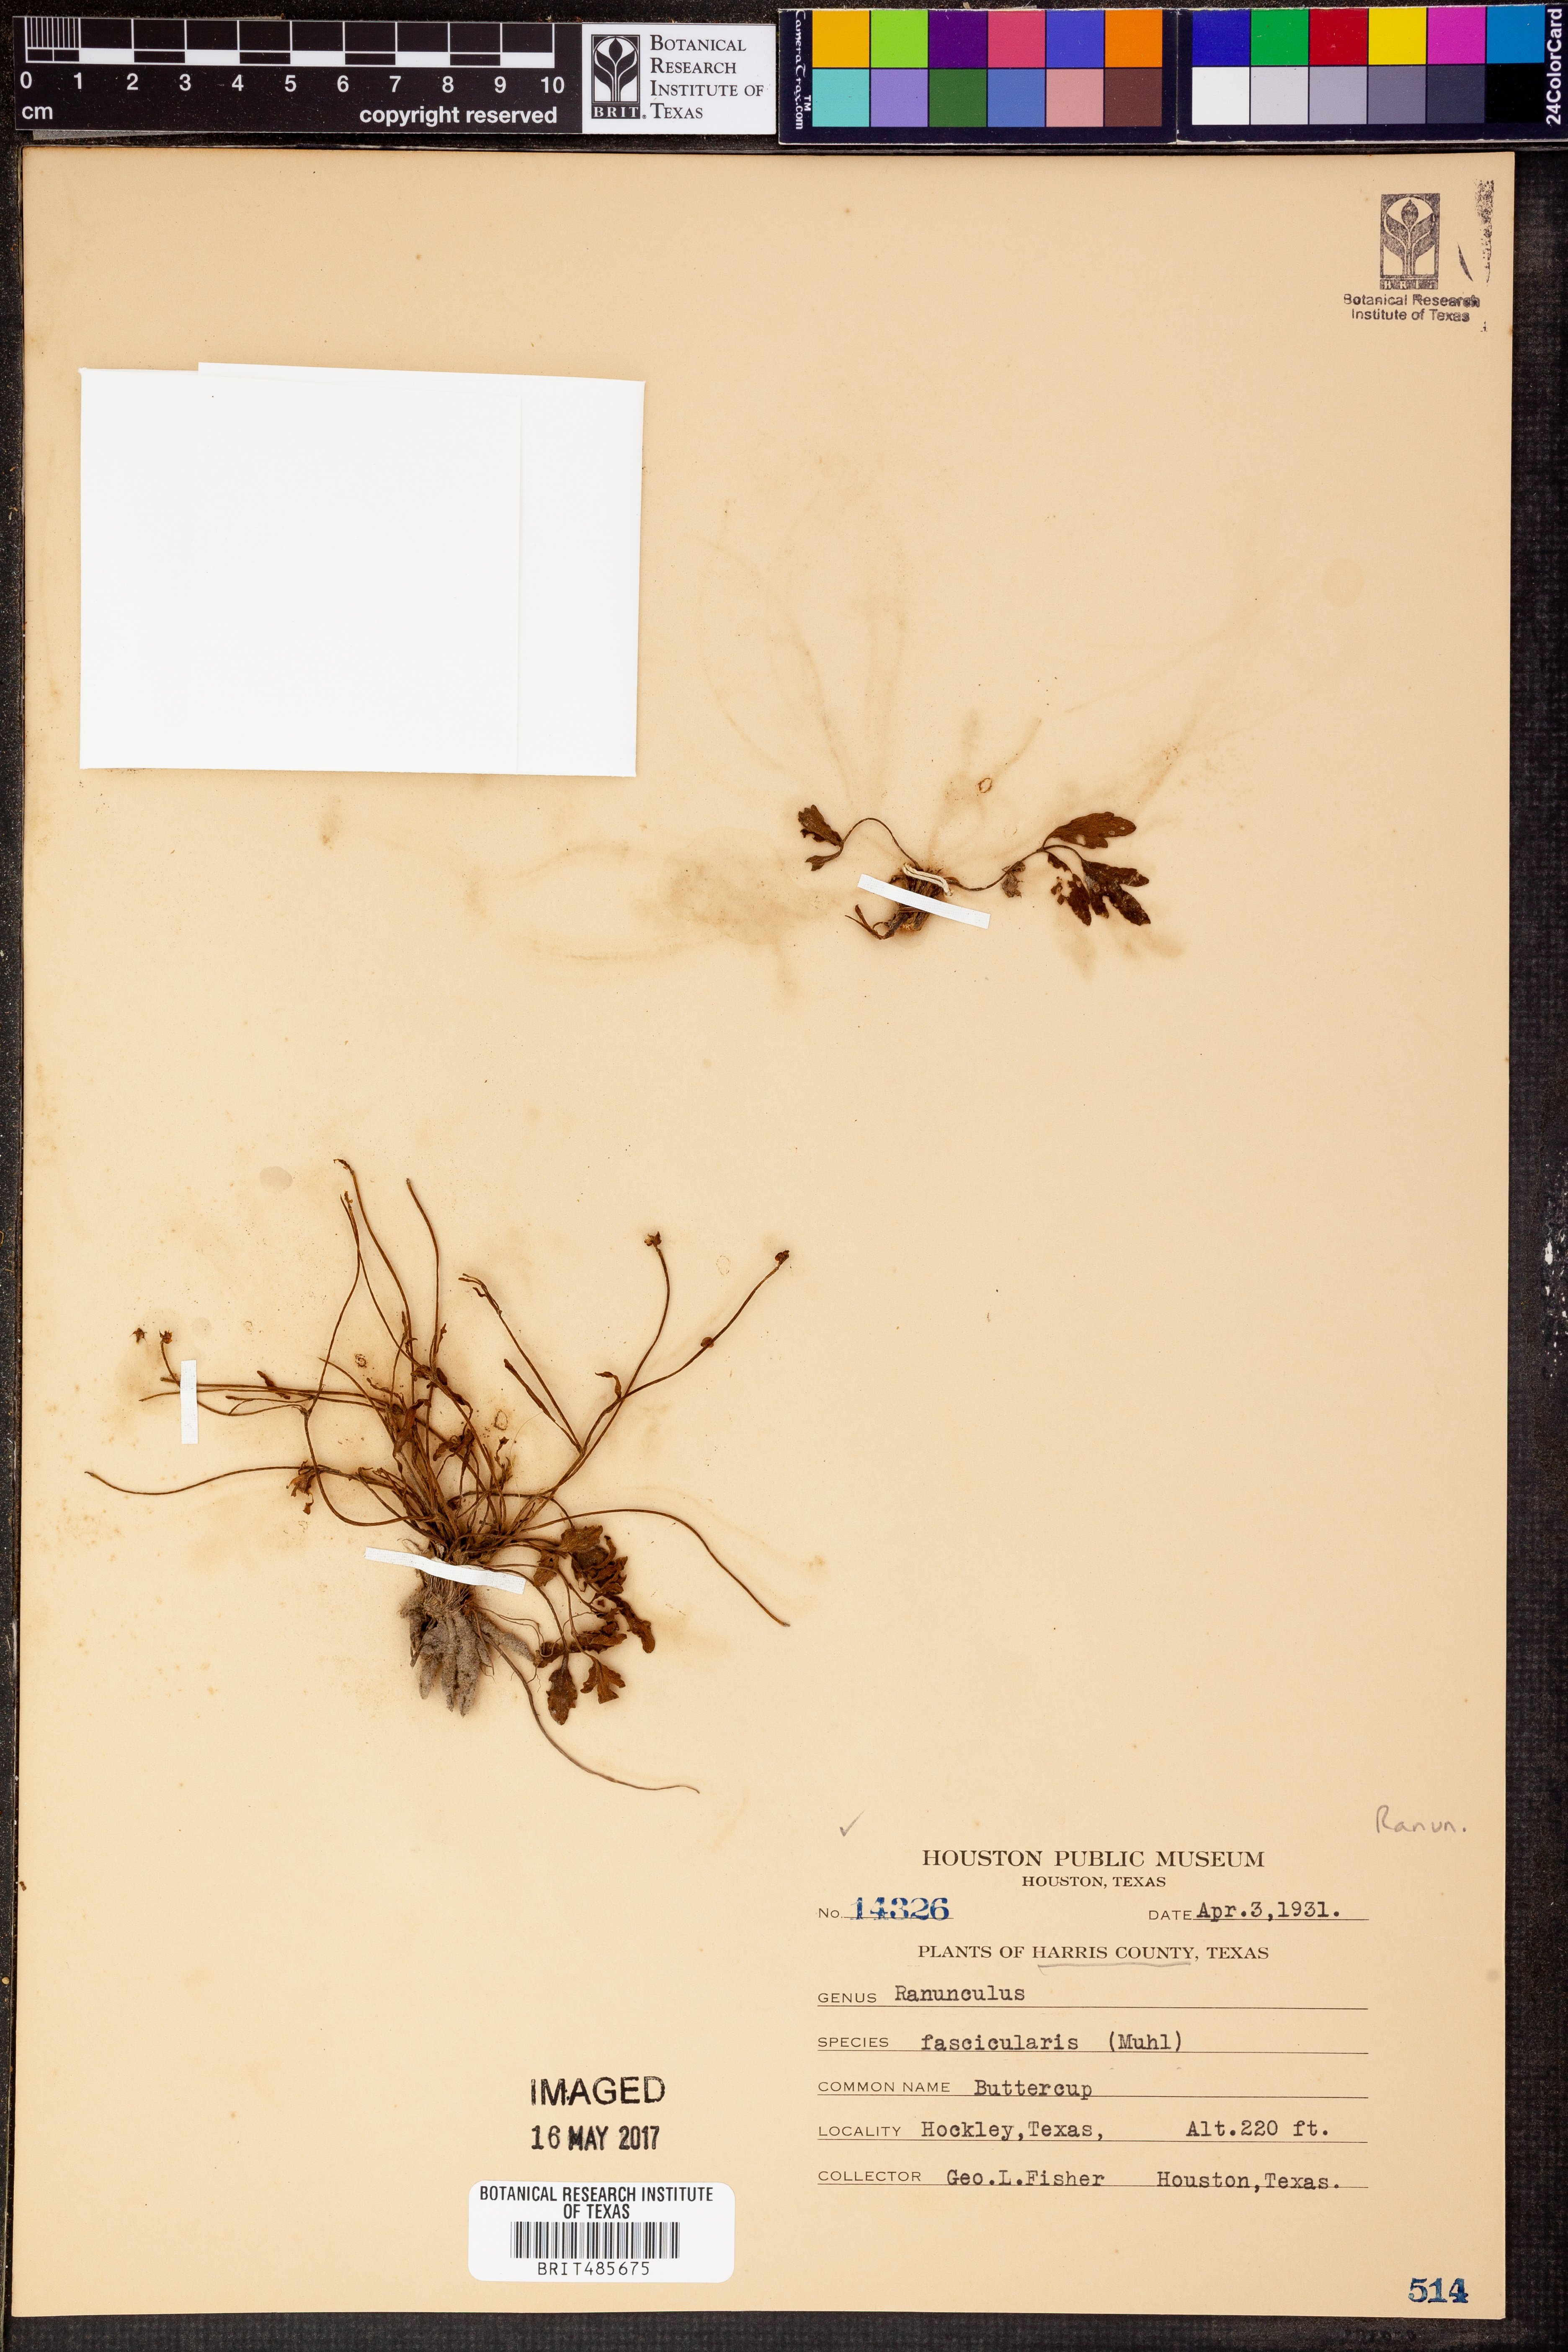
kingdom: Plantae
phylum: Tracheophyta
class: Magnoliopsida
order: Ranunculales
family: Ranunculaceae
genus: Ranunculus
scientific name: Ranunculus fascicularis
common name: Early buttercup
